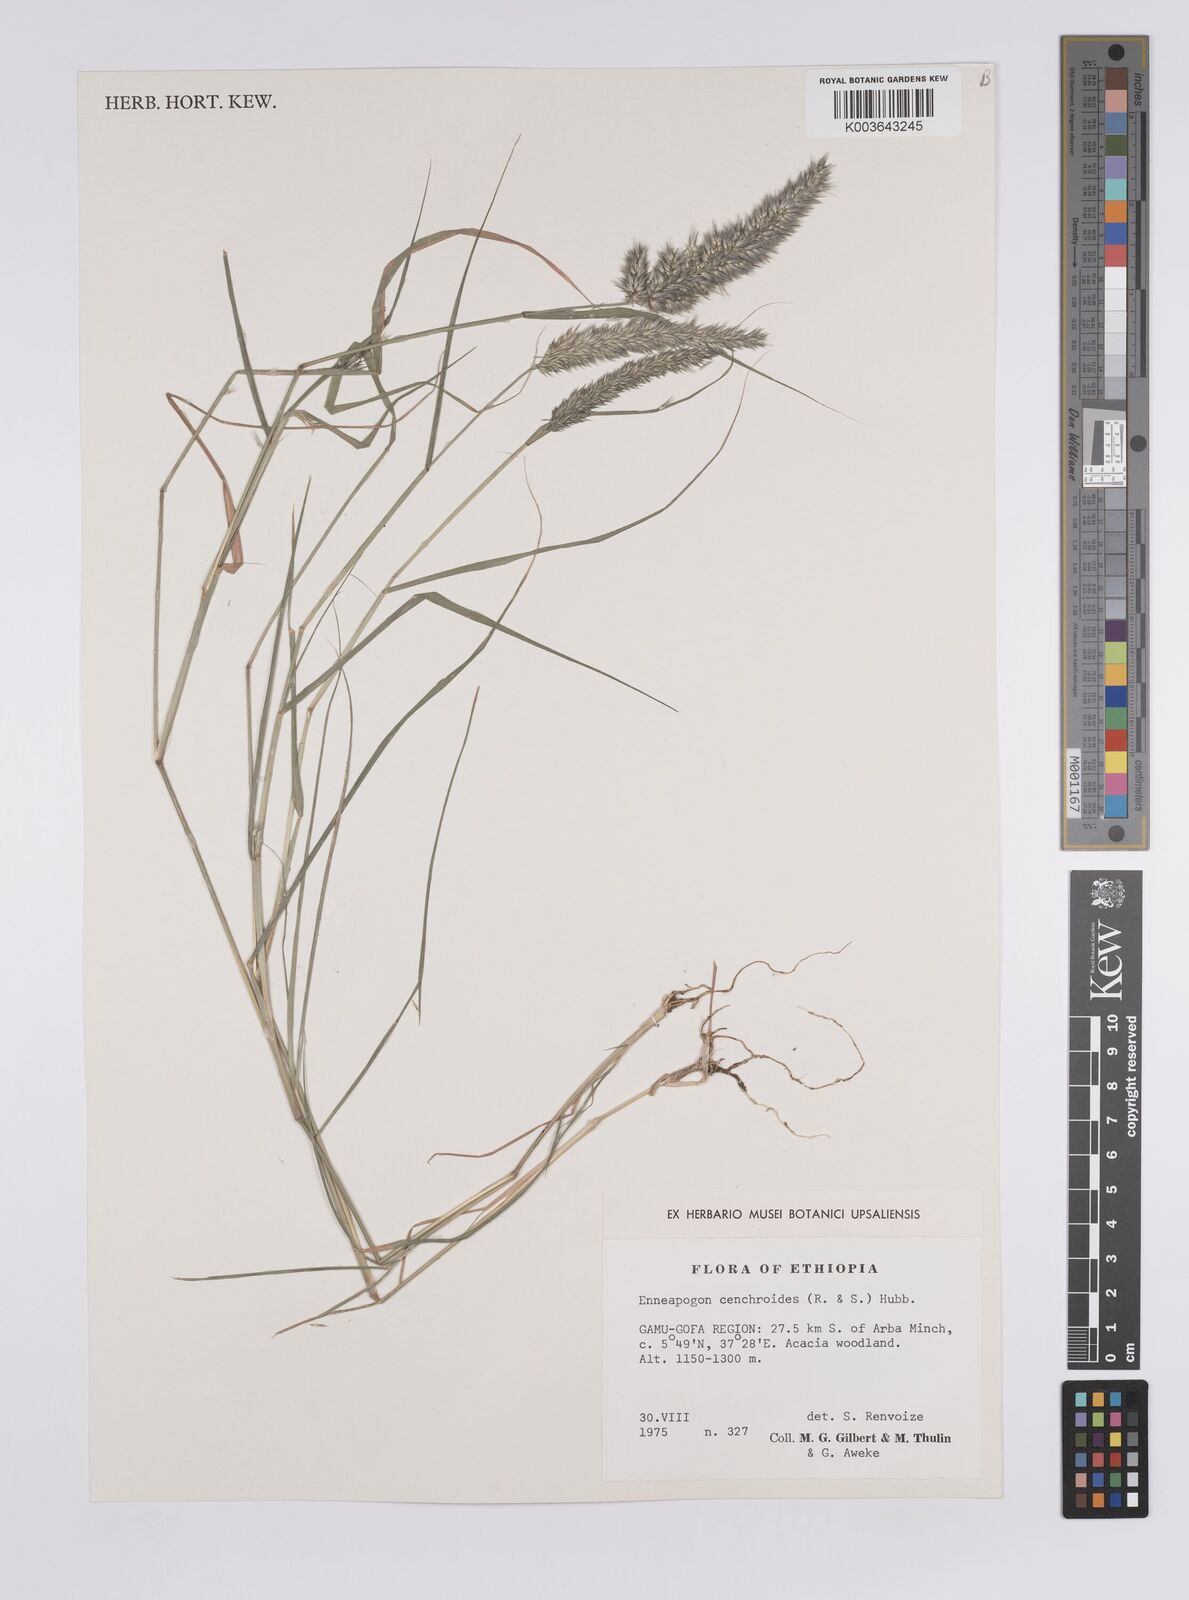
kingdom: Plantae
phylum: Tracheophyta
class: Liliopsida
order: Poales
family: Poaceae
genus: Enneapogon
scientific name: Enneapogon cenchroides
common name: Soft feather pappusgrass
